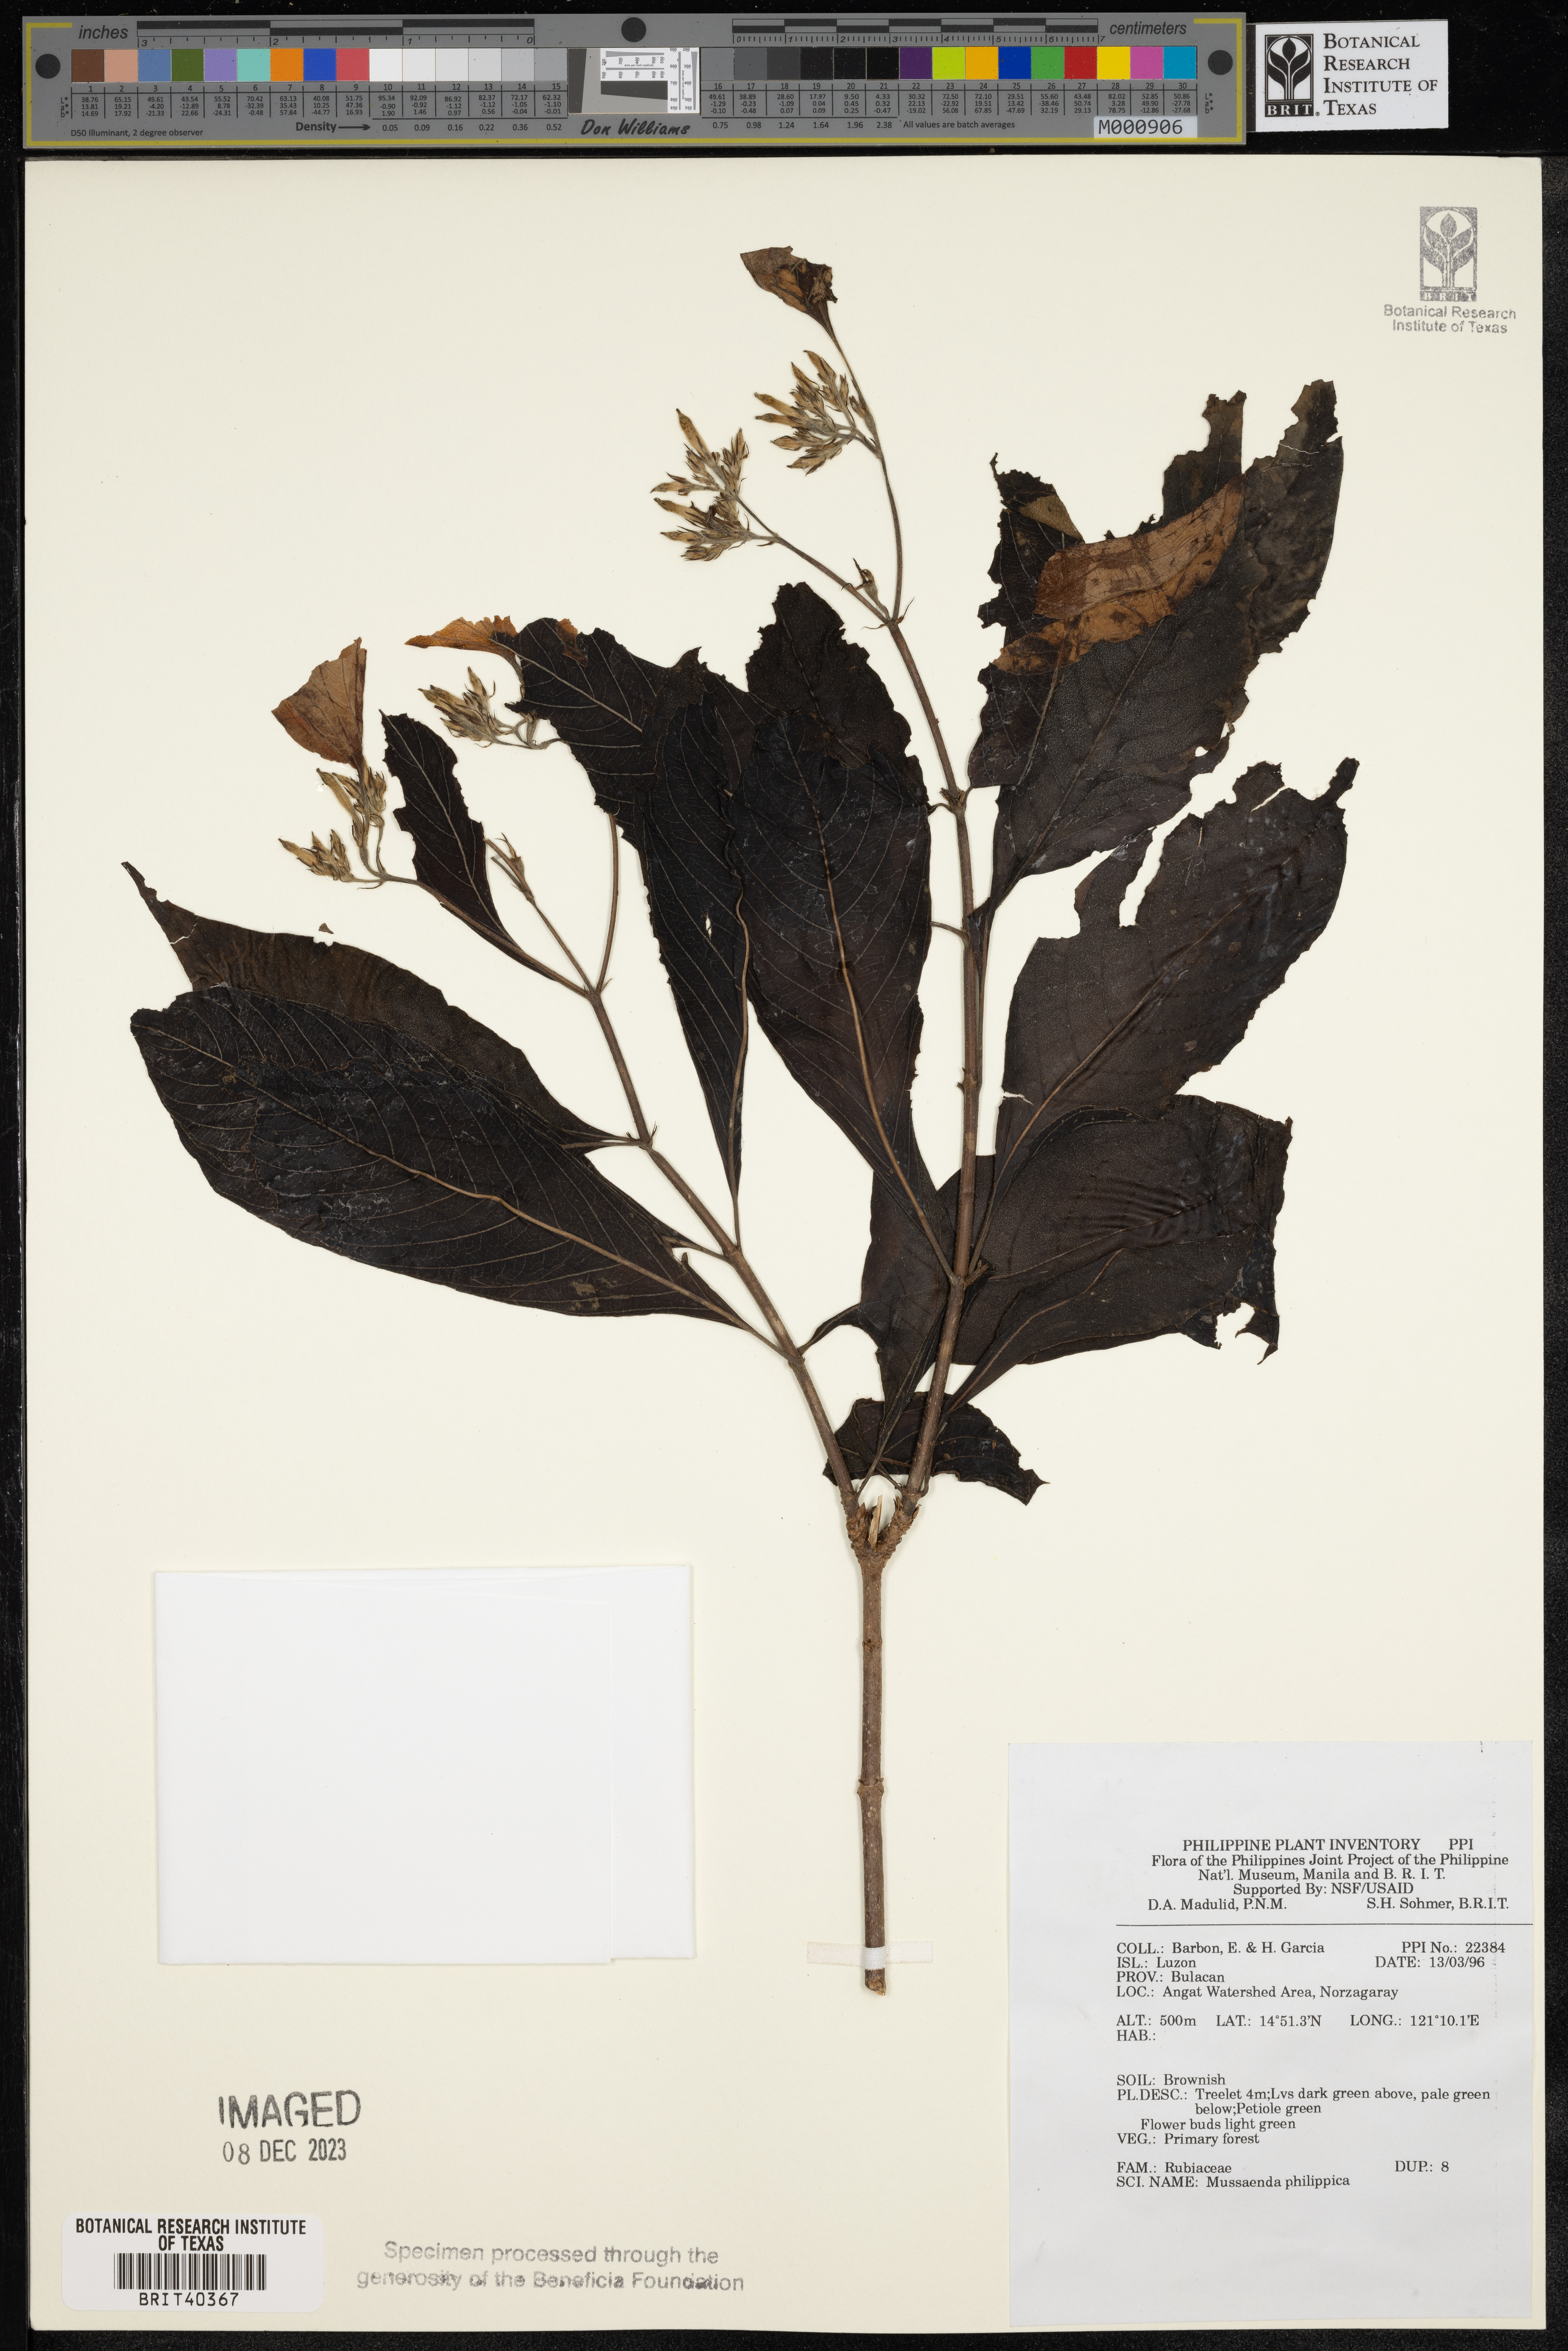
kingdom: Plantae
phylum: Tracheophyta
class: Magnoliopsida
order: Gentianales
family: Rubiaceae
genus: Mussaenda
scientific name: Mussaenda philippica
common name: Philippine mussaenda
